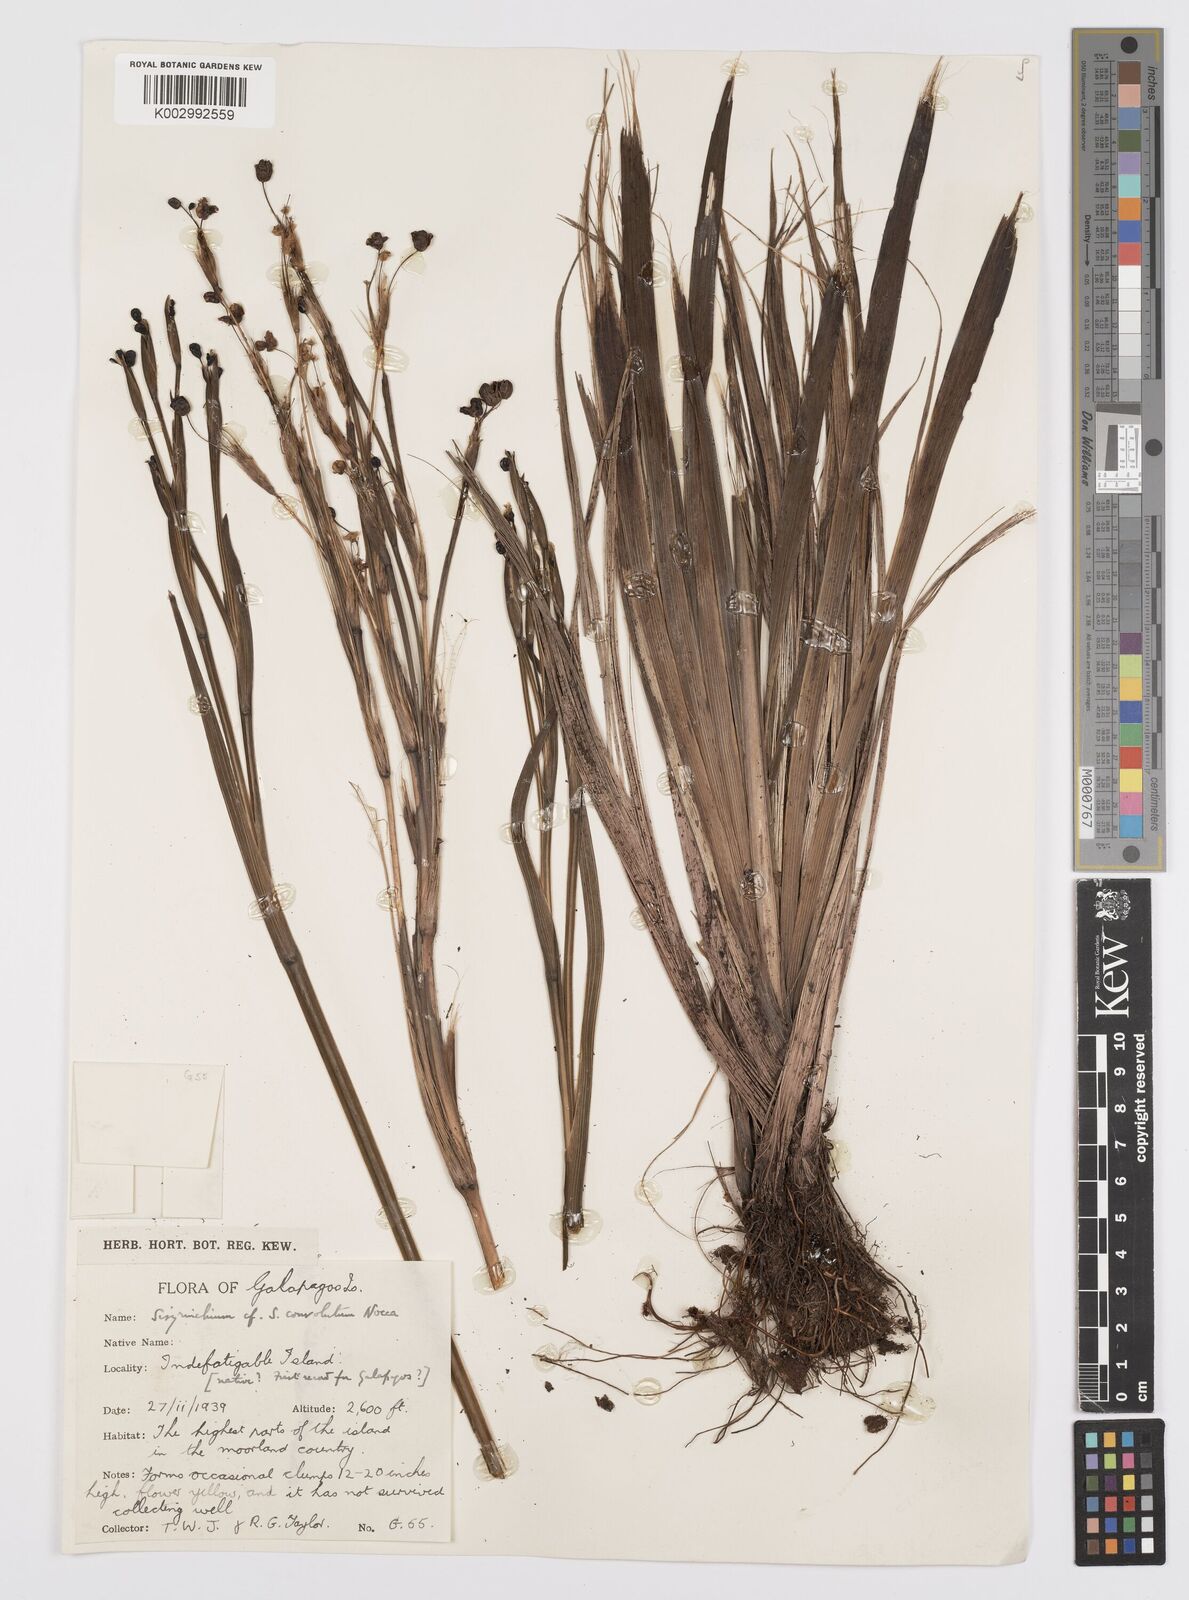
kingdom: Plantae
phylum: Tracheophyta
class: Liliopsida
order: Asparagales
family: Iridaceae
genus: Sisyrinchium
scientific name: Sisyrinchium convolutum
